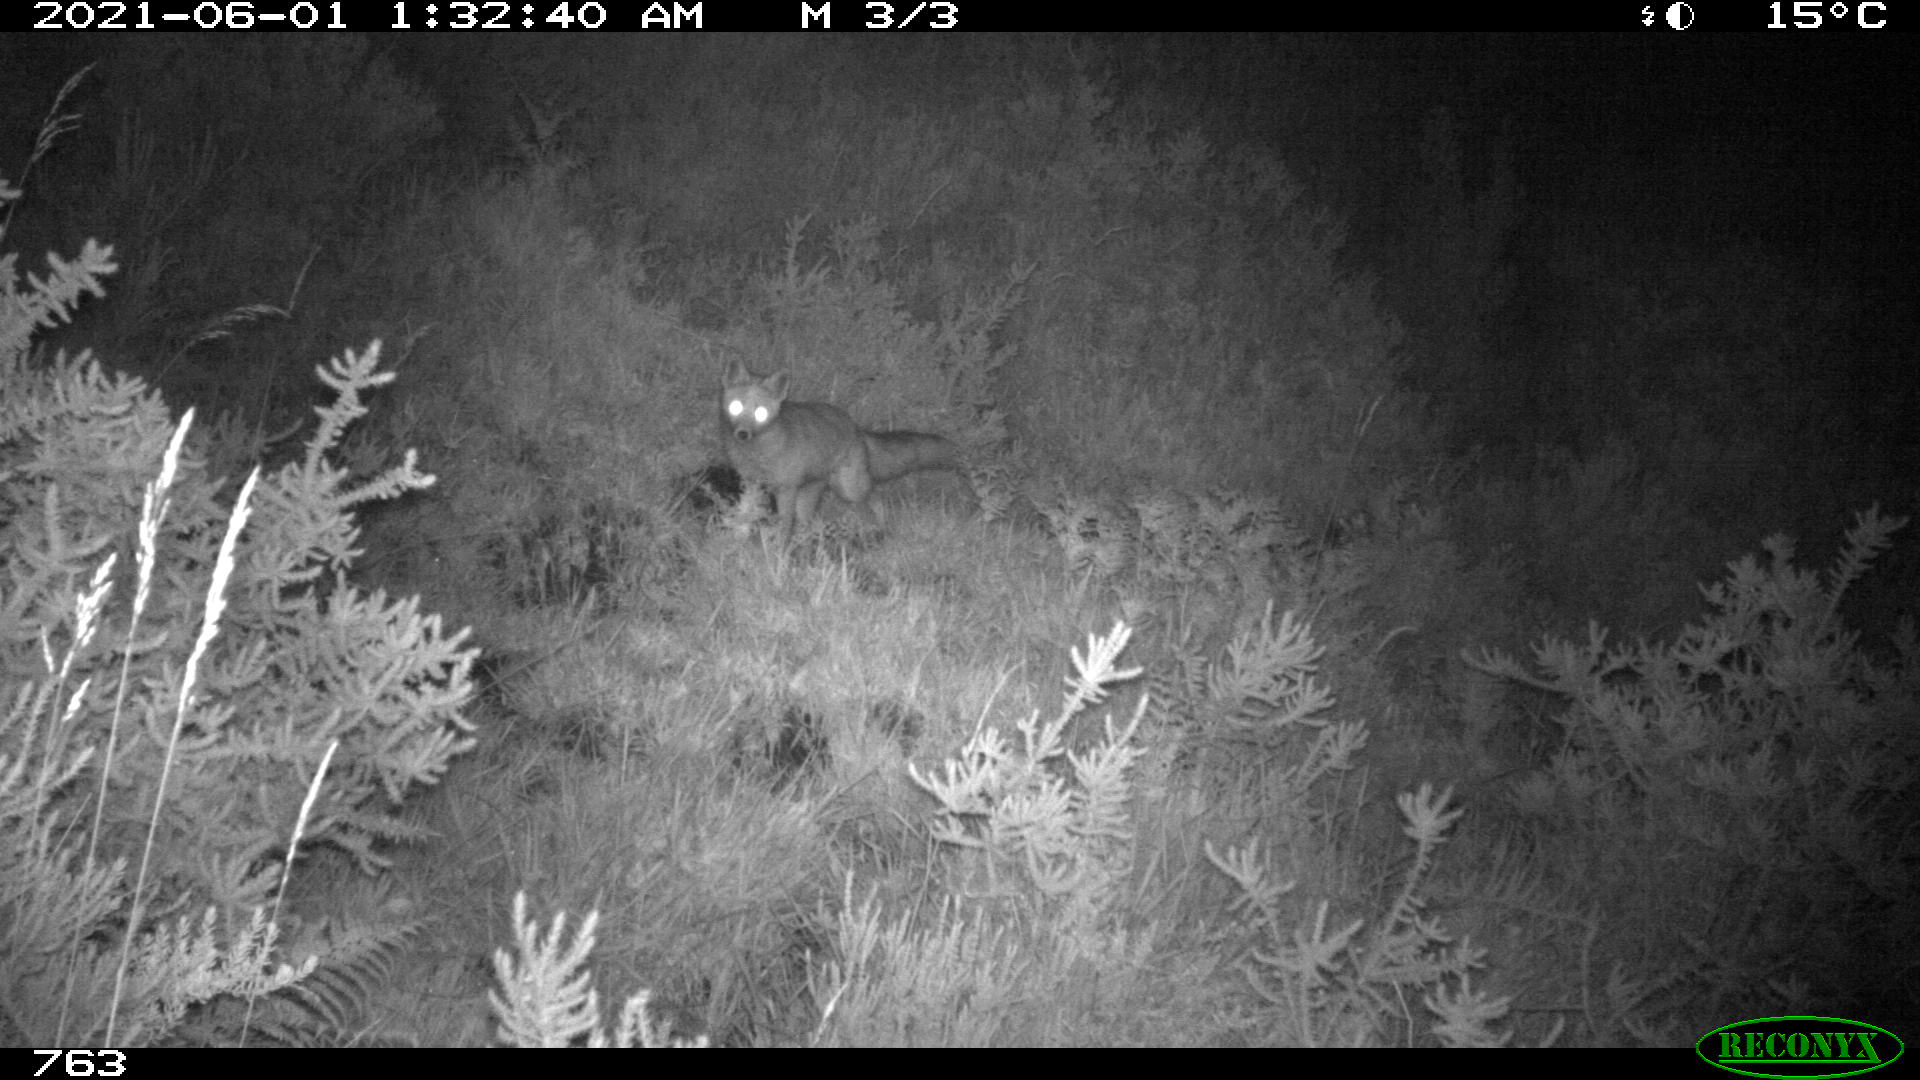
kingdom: Animalia
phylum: Chordata
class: Mammalia
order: Carnivora
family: Canidae
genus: Vulpes
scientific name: Vulpes vulpes
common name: Red fox
